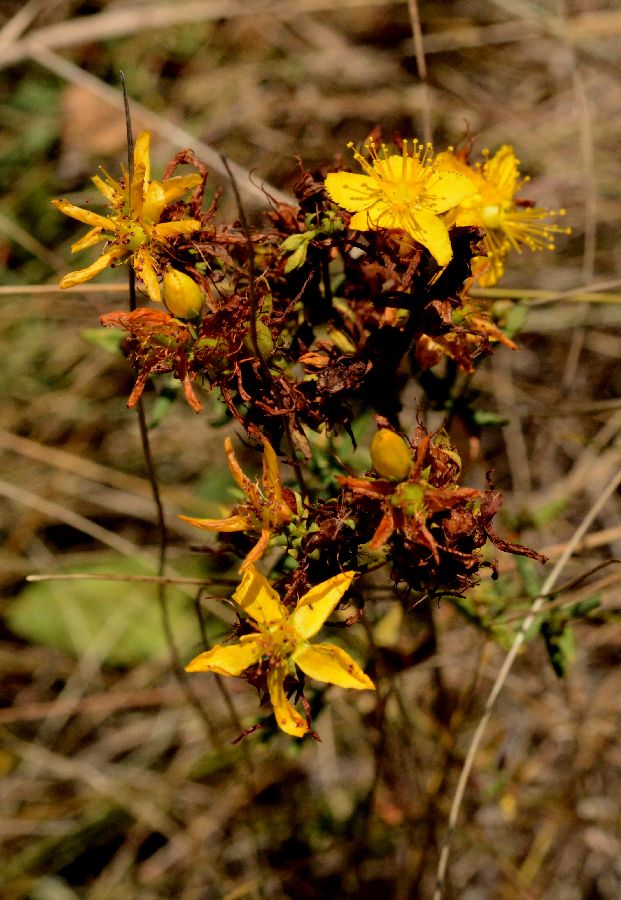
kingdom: Plantae
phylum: Tracheophyta
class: Magnoliopsida
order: Malpighiales
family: Hypericaceae
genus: Hypericum
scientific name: Hypericum perfoliatum
